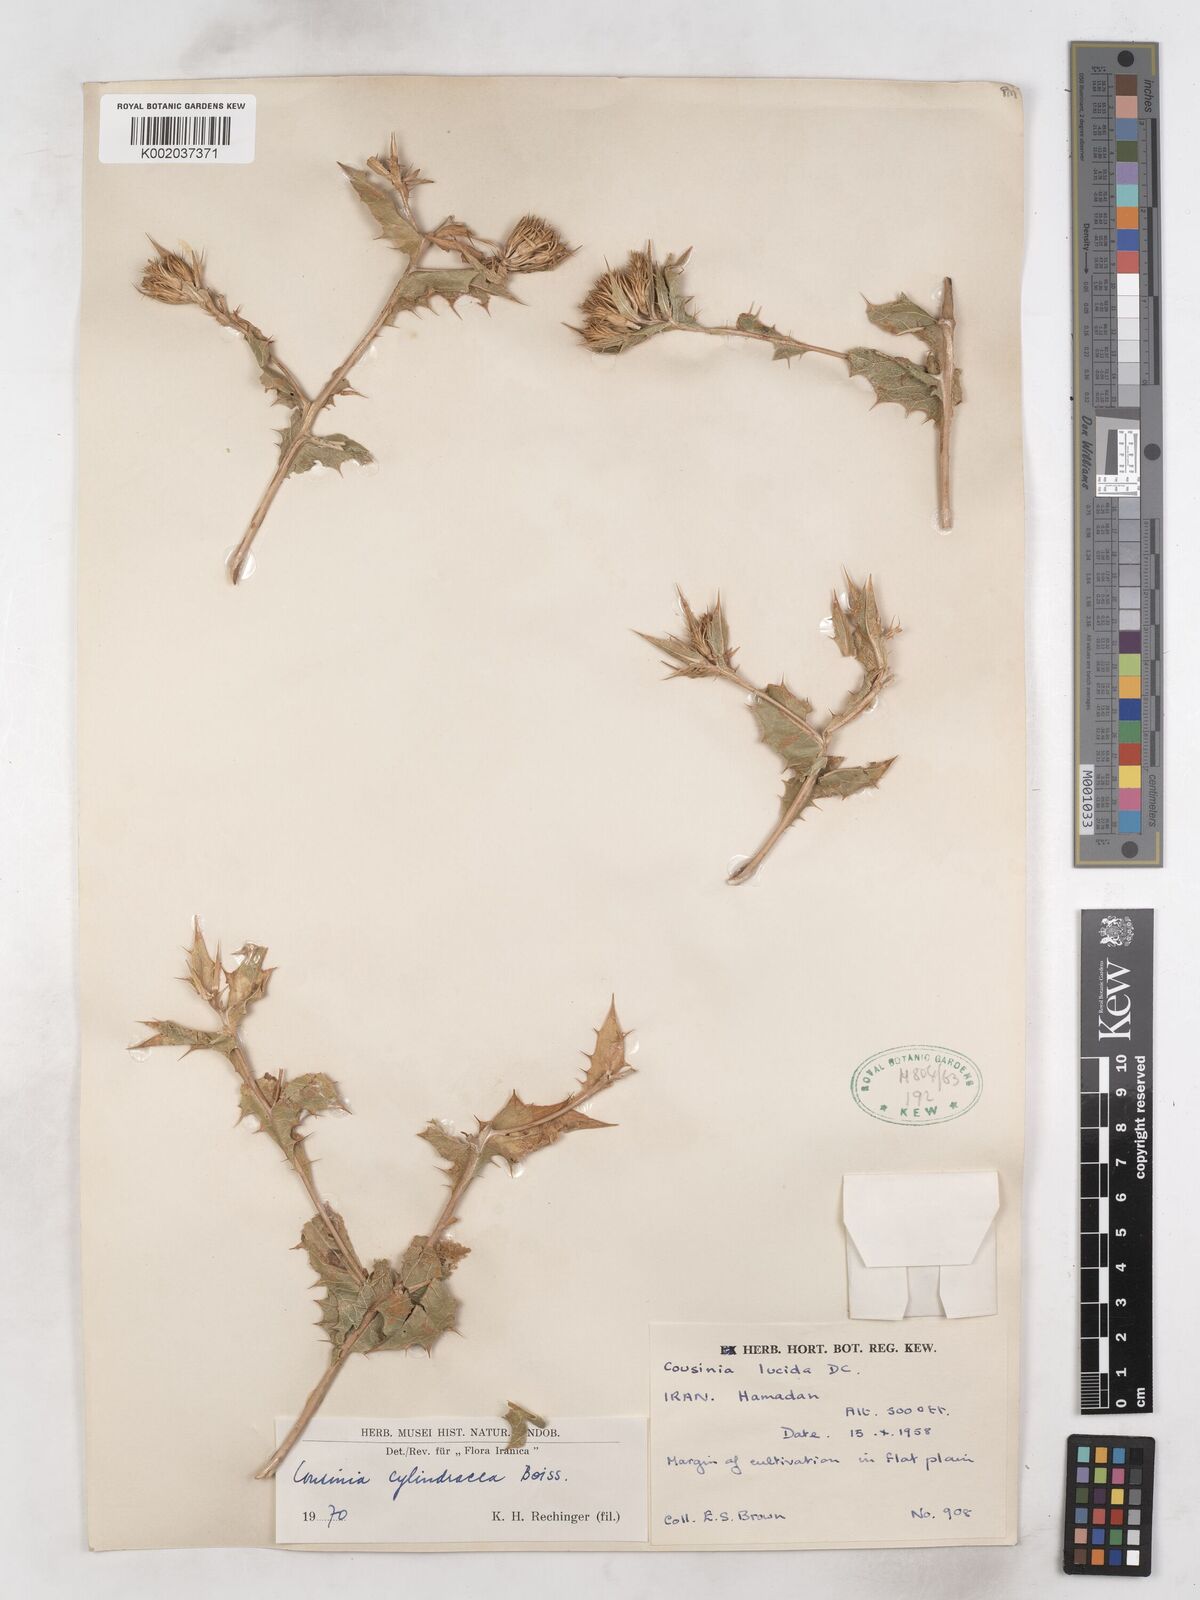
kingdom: Plantae
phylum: Tracheophyta
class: Magnoliopsida
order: Asterales
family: Asteraceae
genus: Cousinia
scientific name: Cousinia cylindracea
